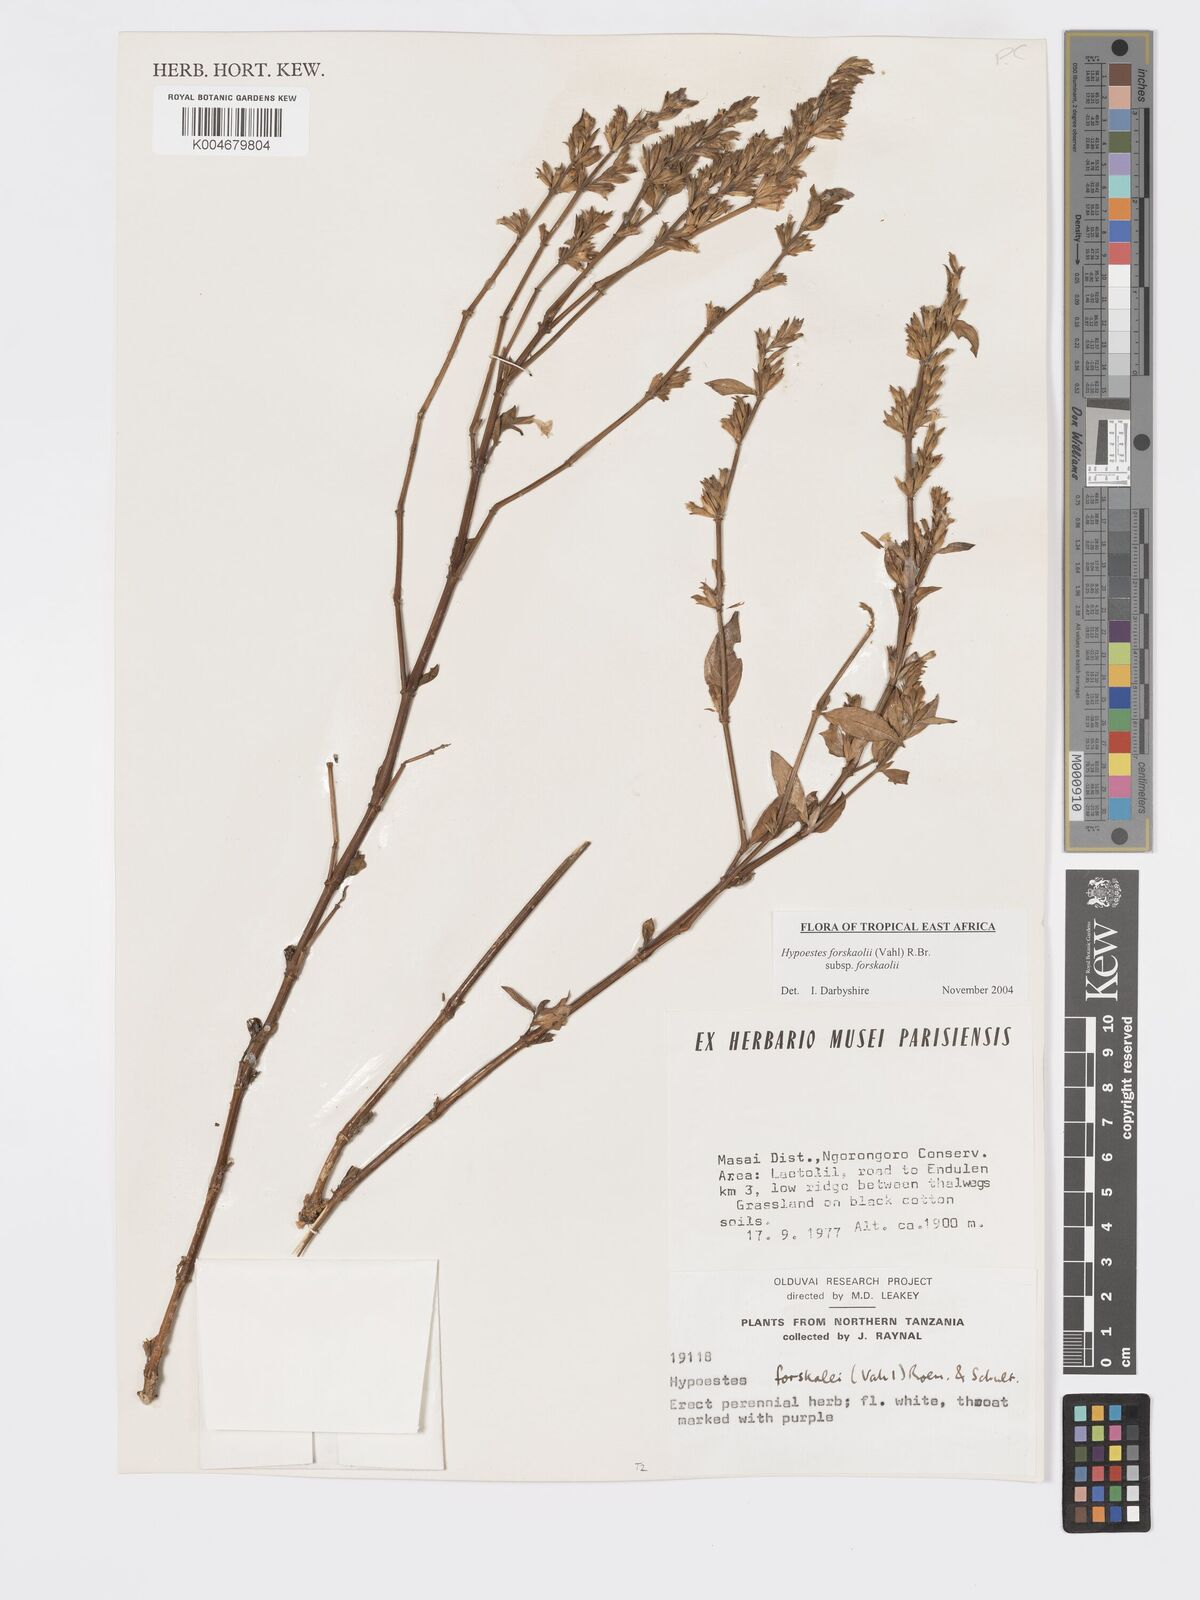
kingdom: Plantae
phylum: Tracheophyta
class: Magnoliopsida
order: Lamiales
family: Acanthaceae
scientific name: Acanthaceae
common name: Acanthaceae
